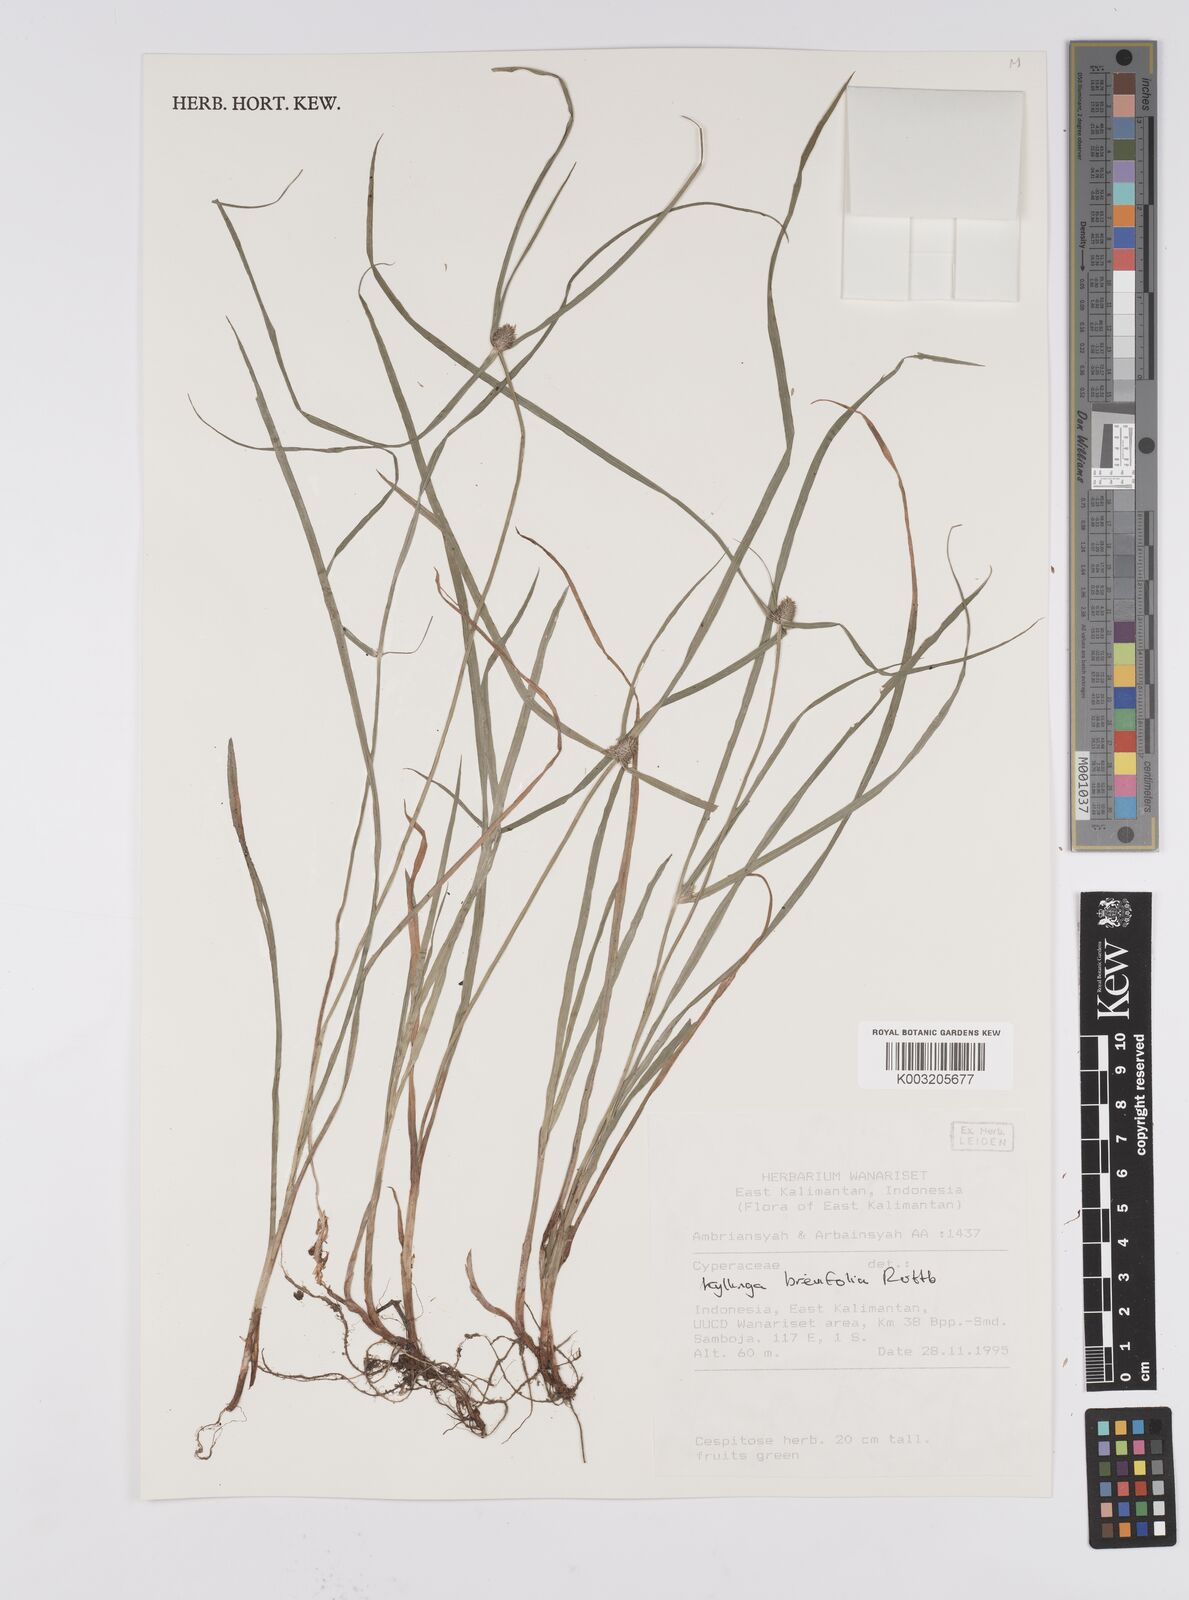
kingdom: Plantae
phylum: Tracheophyta
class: Liliopsida
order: Poales
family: Cyperaceae
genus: Cyperus
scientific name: Cyperus brevifolius
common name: Globe kyllinga
